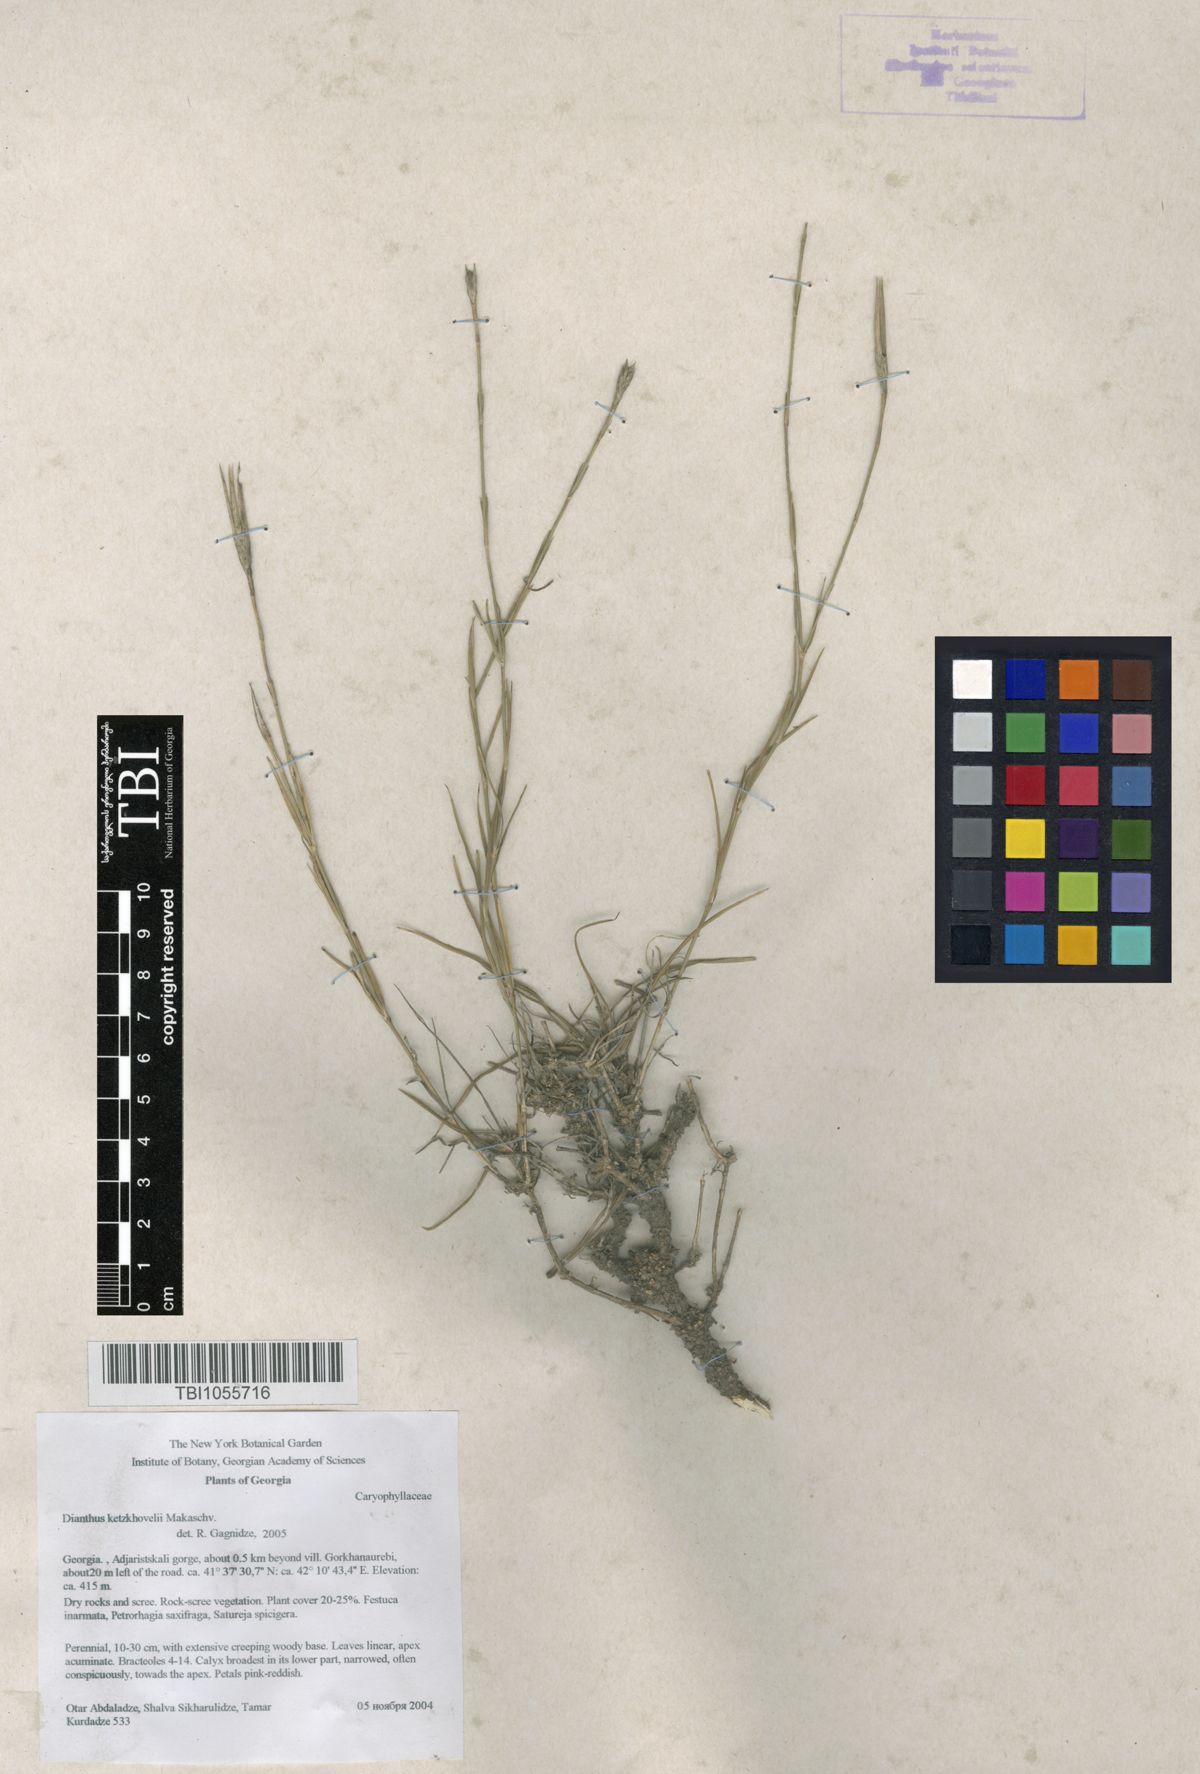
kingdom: Plantae
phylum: Tracheophyta
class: Magnoliopsida
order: Caryophyllales
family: Caryophyllaceae
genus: Dianthus
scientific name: Dianthus orientalis
